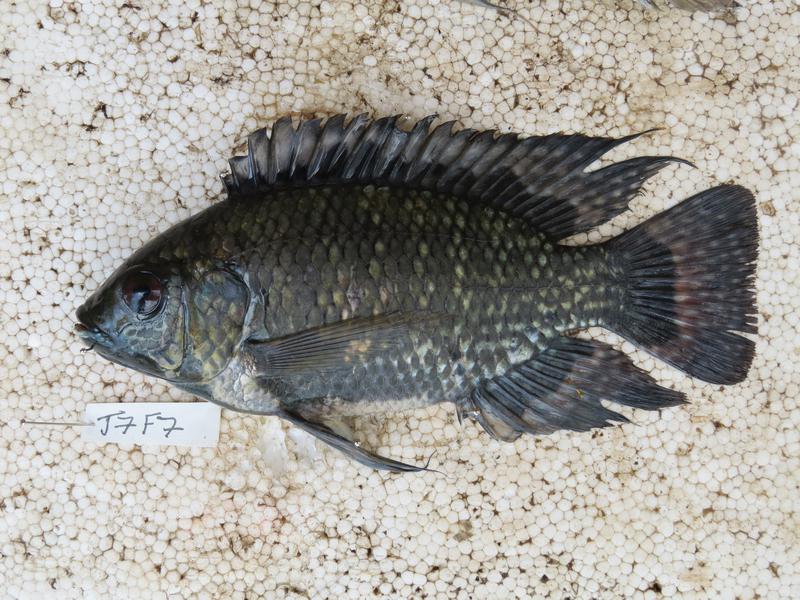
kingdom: Animalia
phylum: Chordata
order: Perciformes
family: Cichlidae
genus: Oreochromis
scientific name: Oreochromis leucostictus
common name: Blue spotted tilapia
